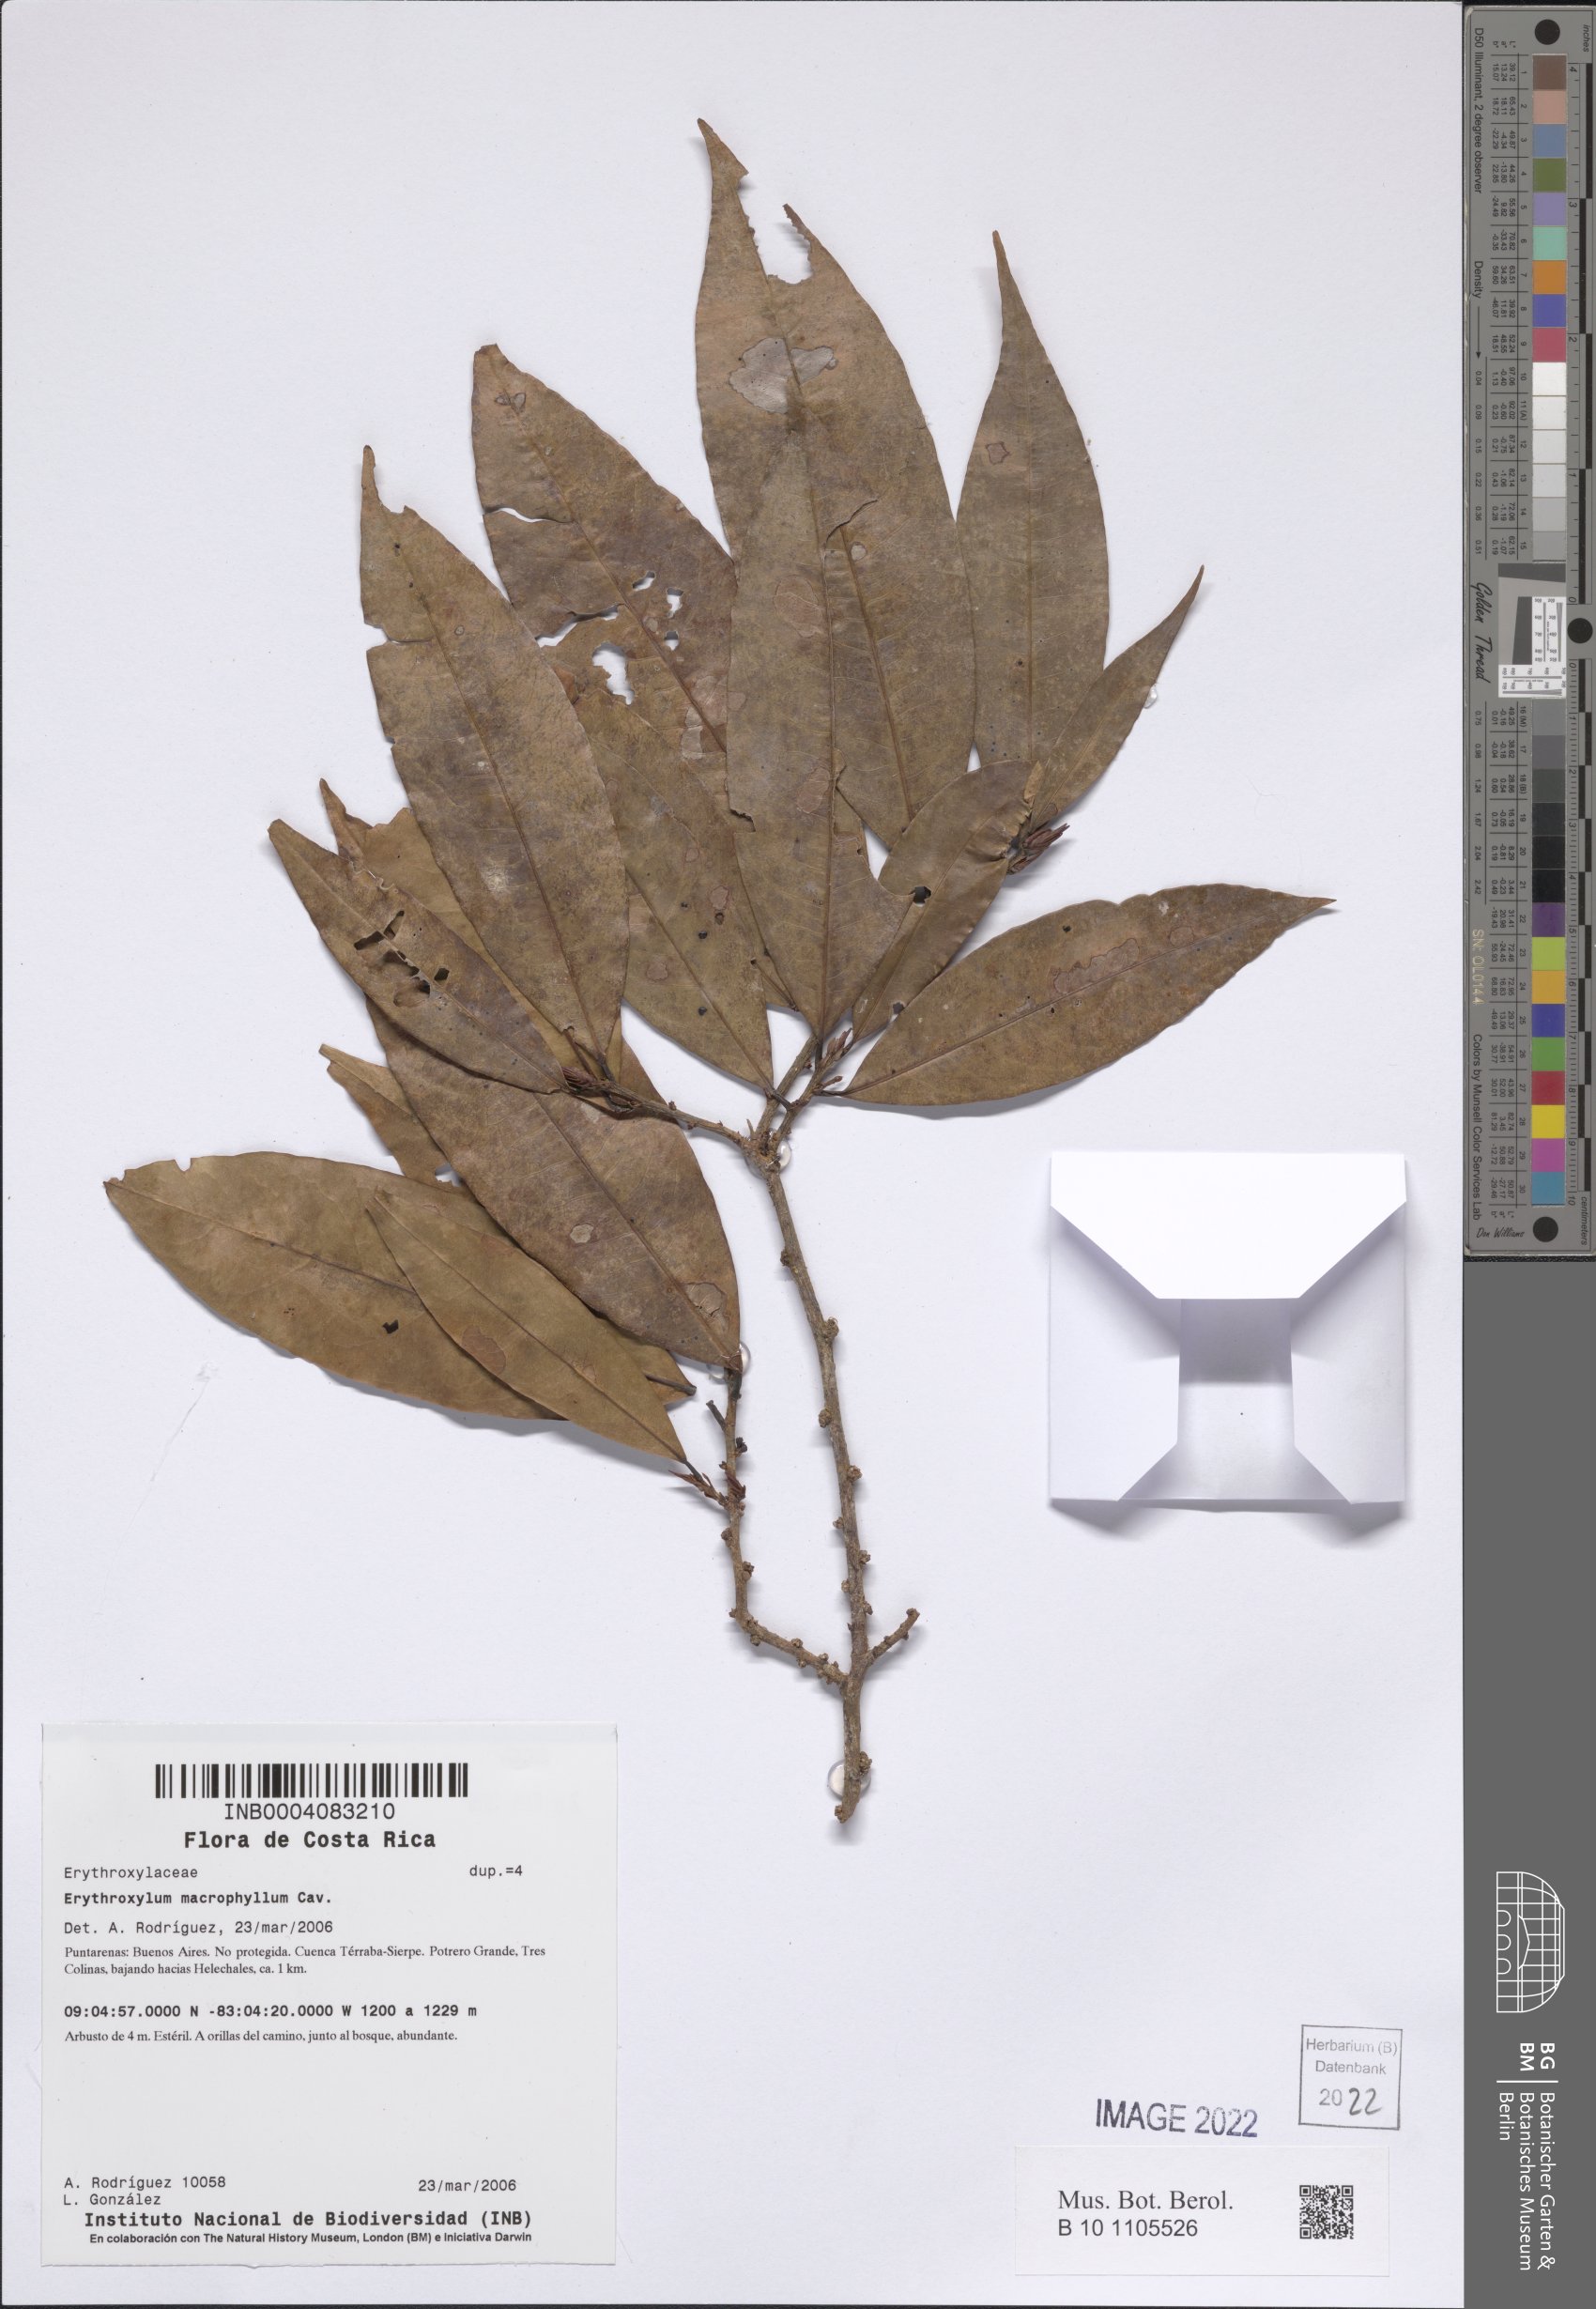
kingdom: Plantae
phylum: Tracheophyta
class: Magnoliopsida
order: Malpighiales
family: Erythroxylaceae
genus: Erythroxylum
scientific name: Erythroxylum macrophyllum
